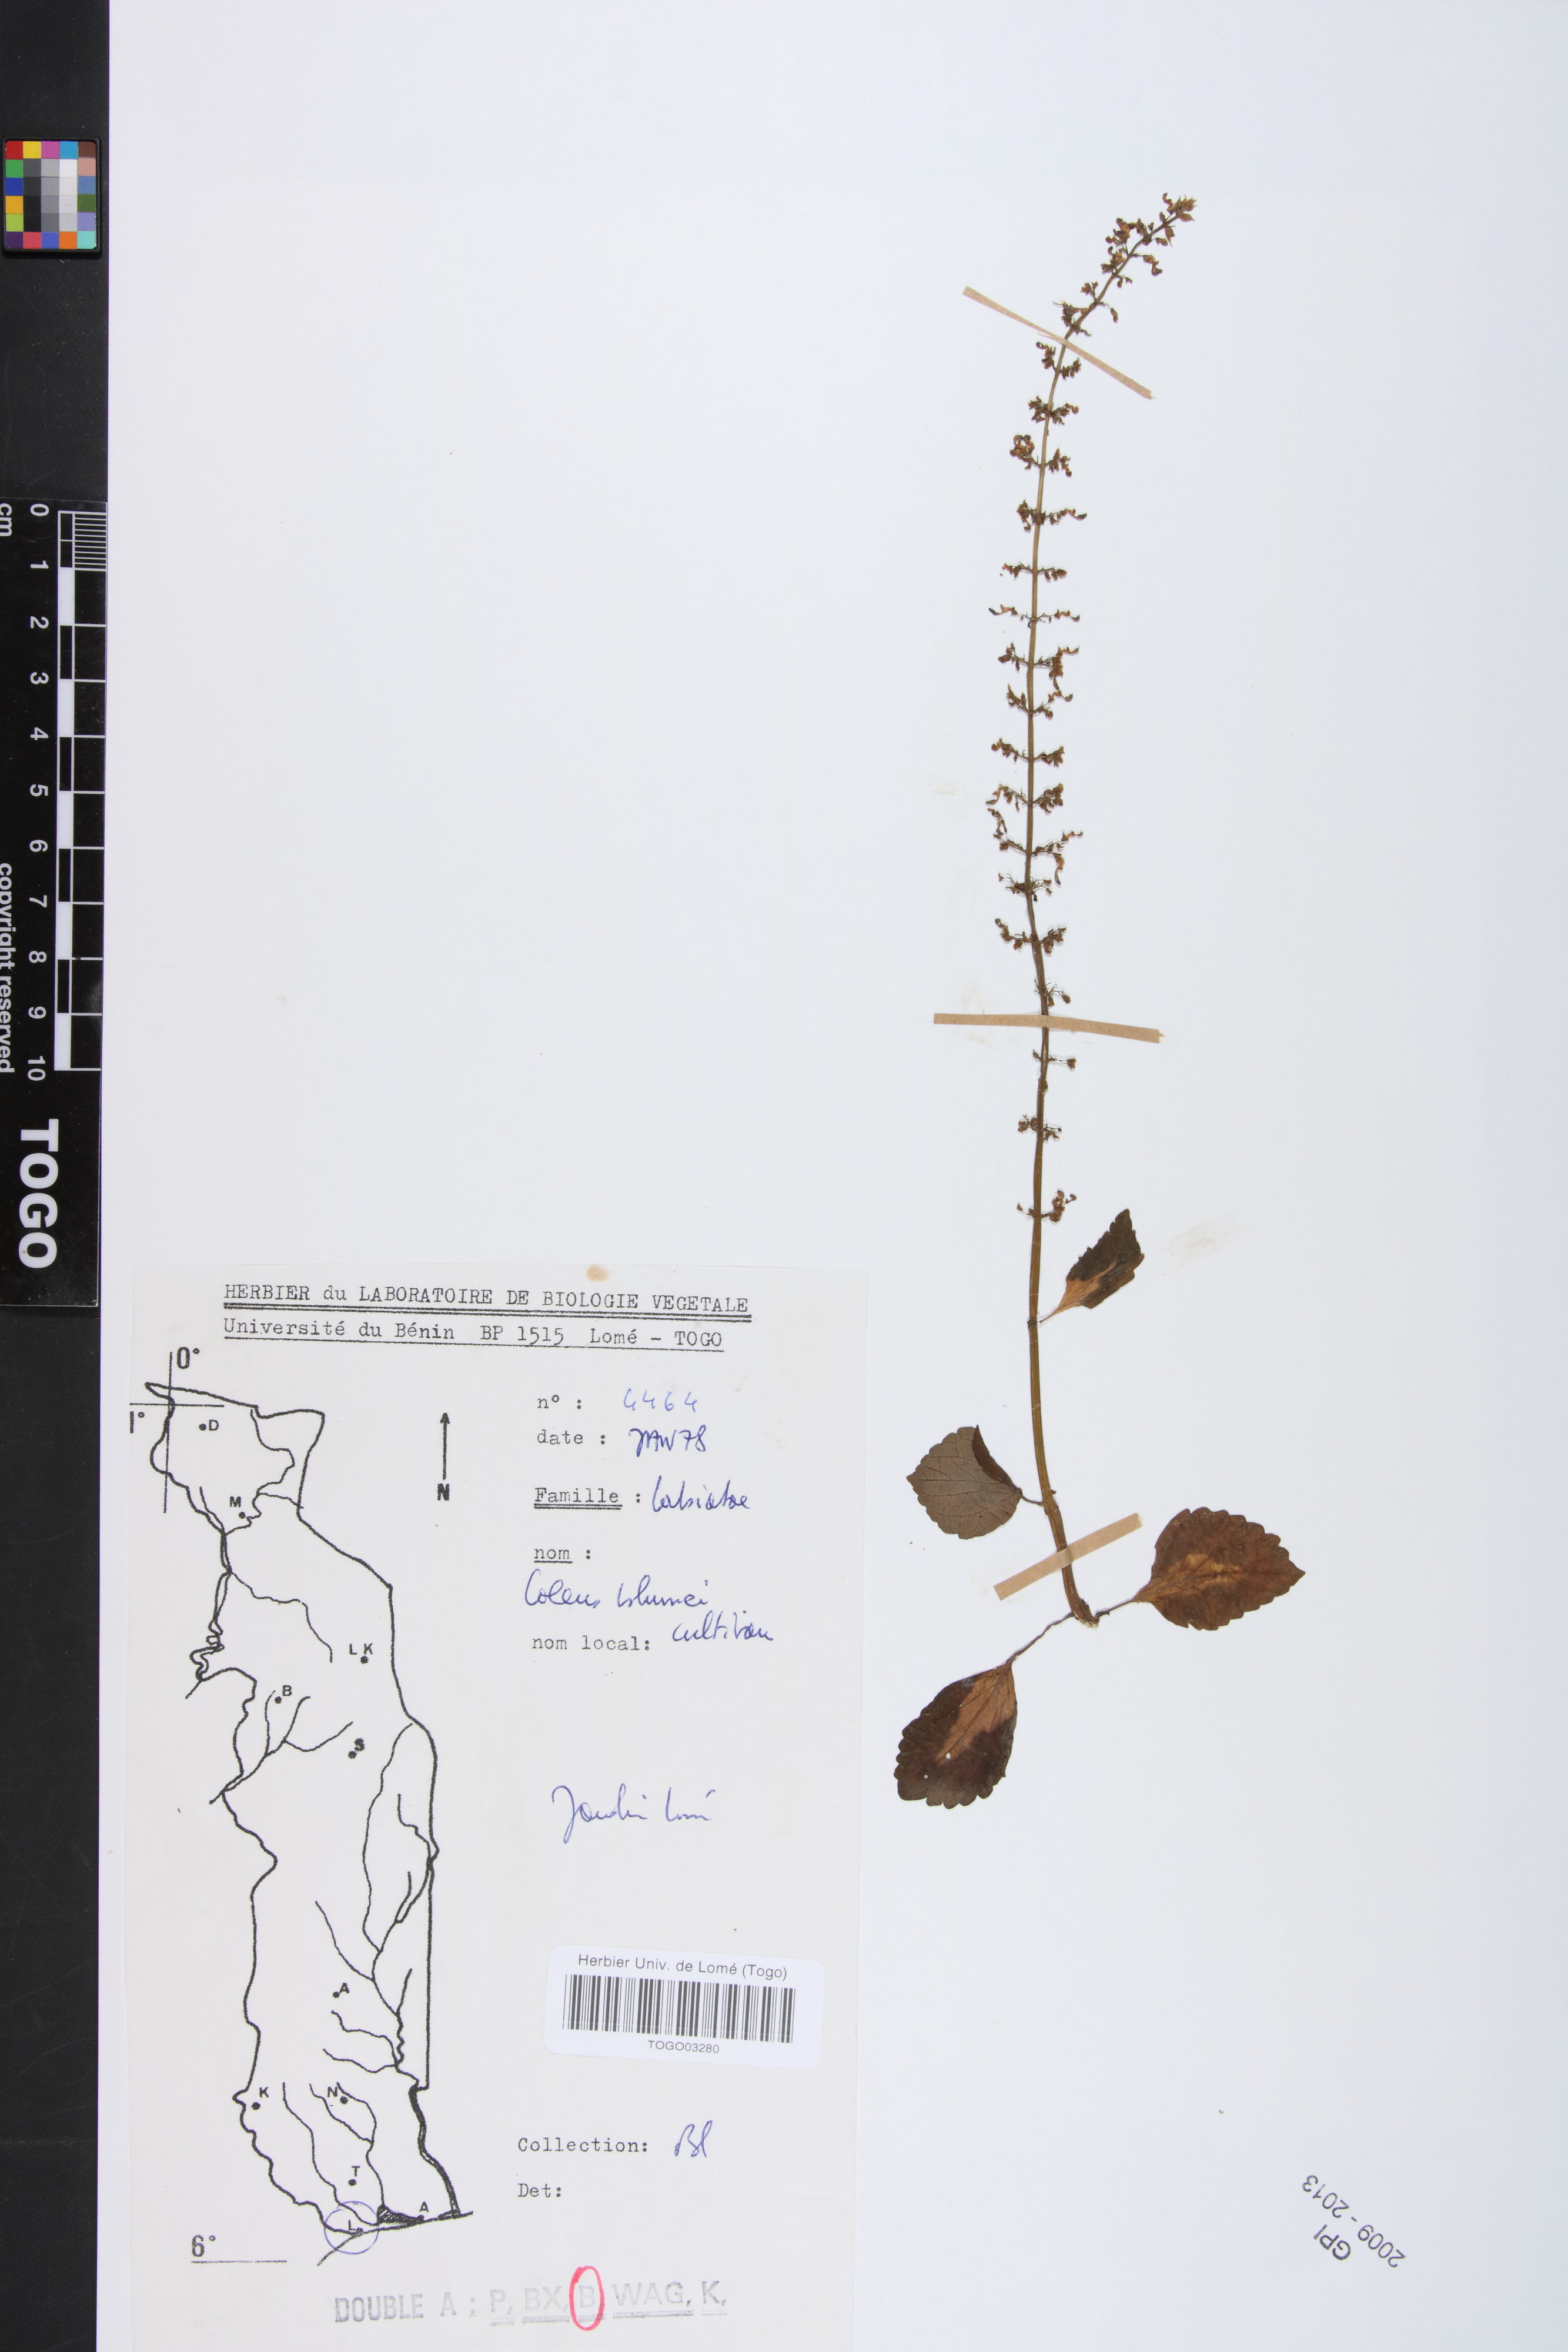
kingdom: Plantae
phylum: Tracheophyta
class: Magnoliopsida
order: Lamiales
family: Lamiaceae
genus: Coleus
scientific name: Coleus scutellarioides
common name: Coleus
